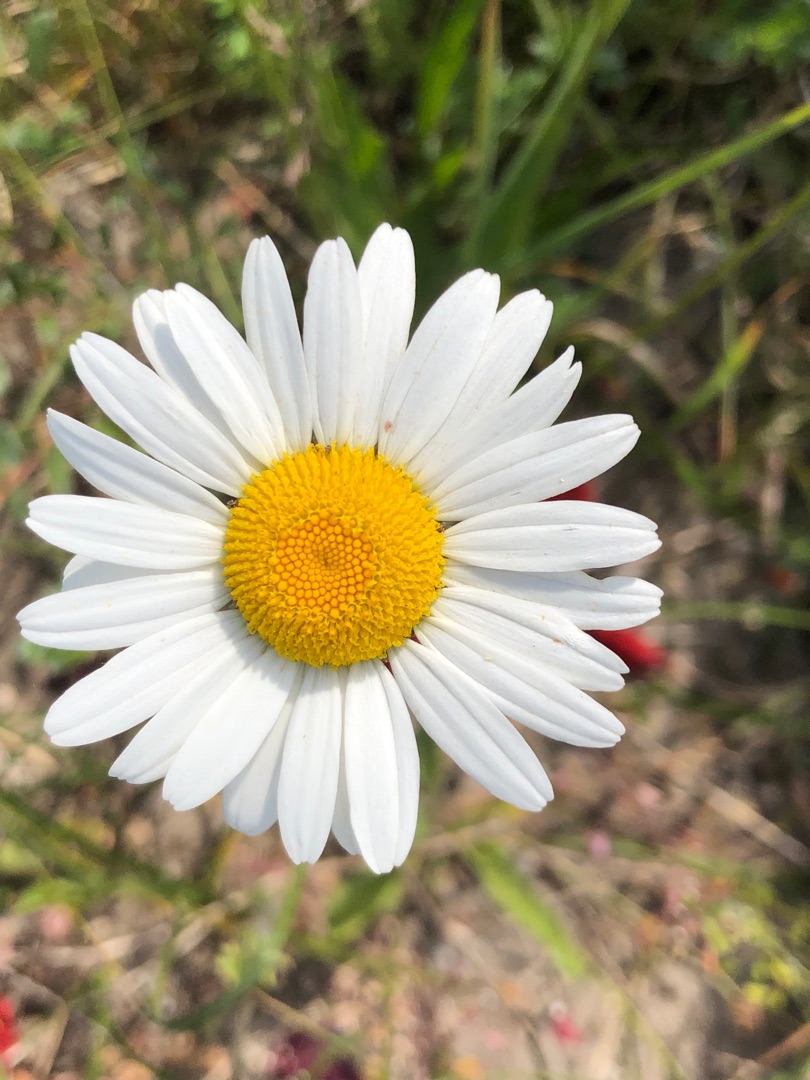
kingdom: Plantae
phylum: Tracheophyta
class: Magnoliopsida
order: Asterales
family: Asteraceae
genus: Leucanthemum
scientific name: Leucanthemum vulgare
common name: Hvid okseøje
